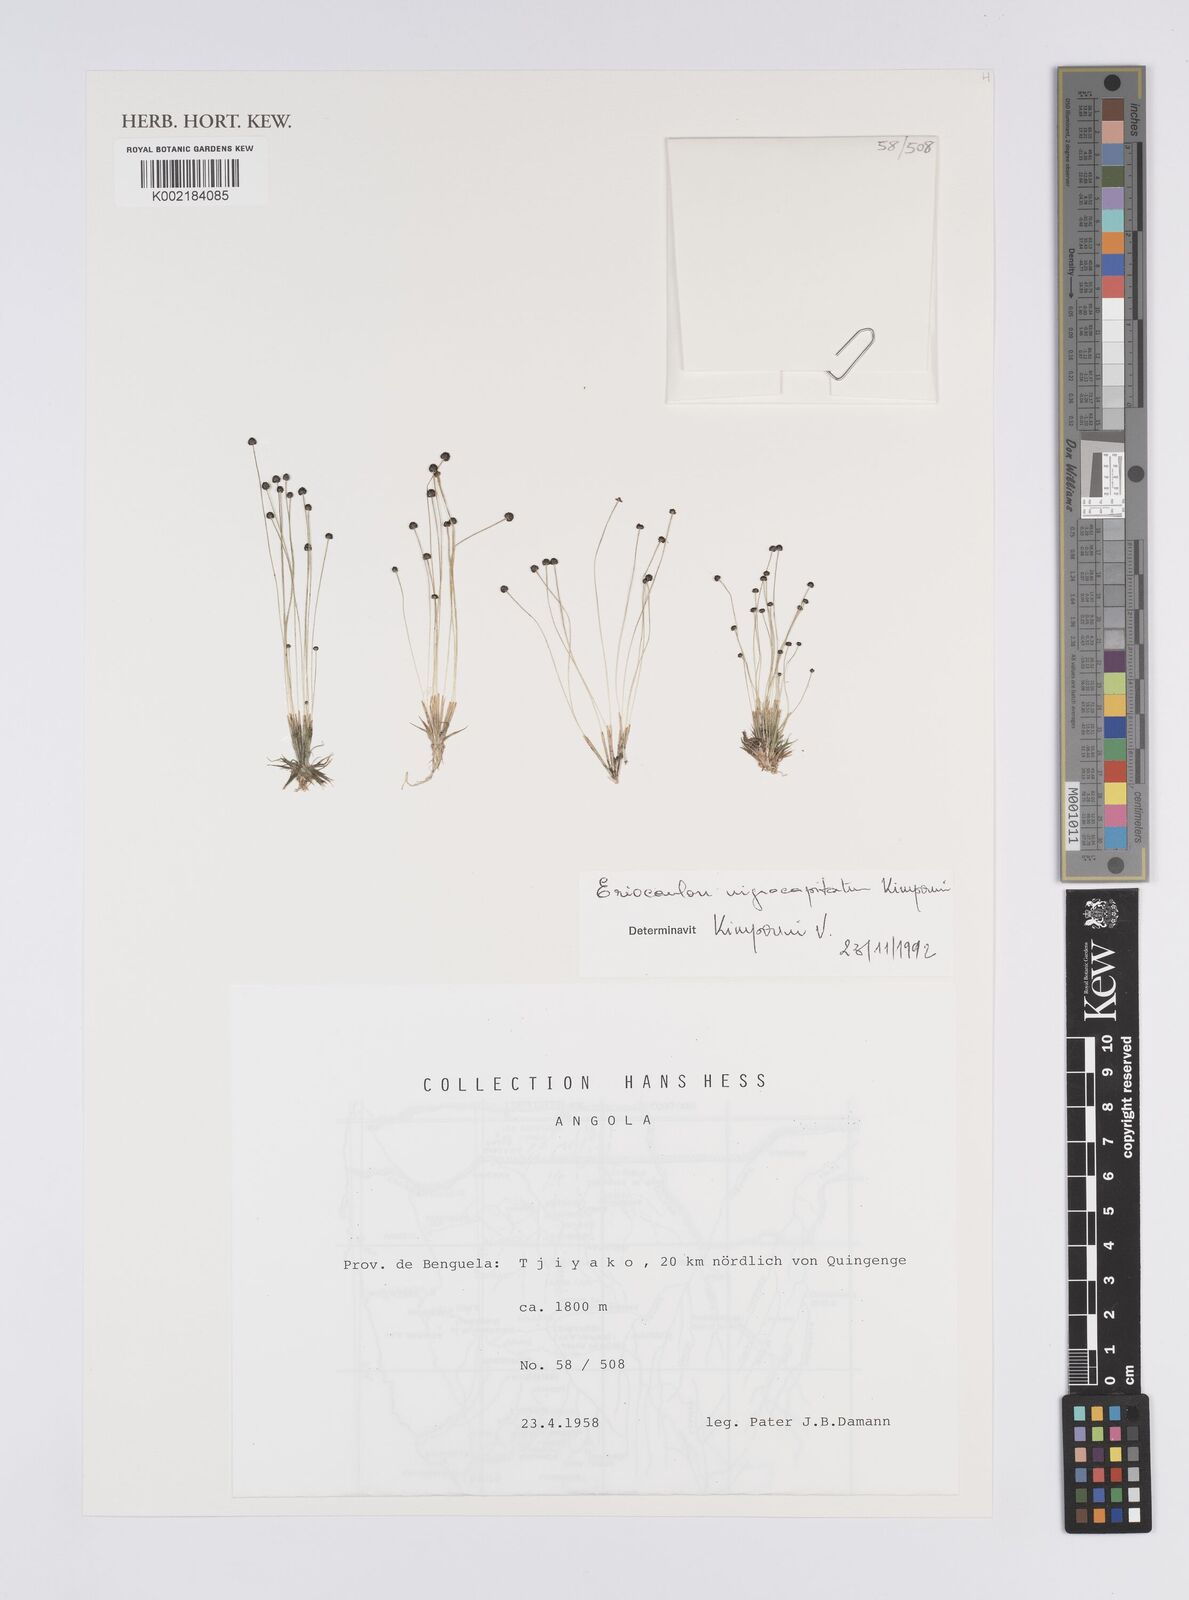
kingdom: Plantae
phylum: Tracheophyta
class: Liliopsida
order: Poales
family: Eriocaulaceae
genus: Eriocaulon
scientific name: Eriocaulon nigrocapitatum
